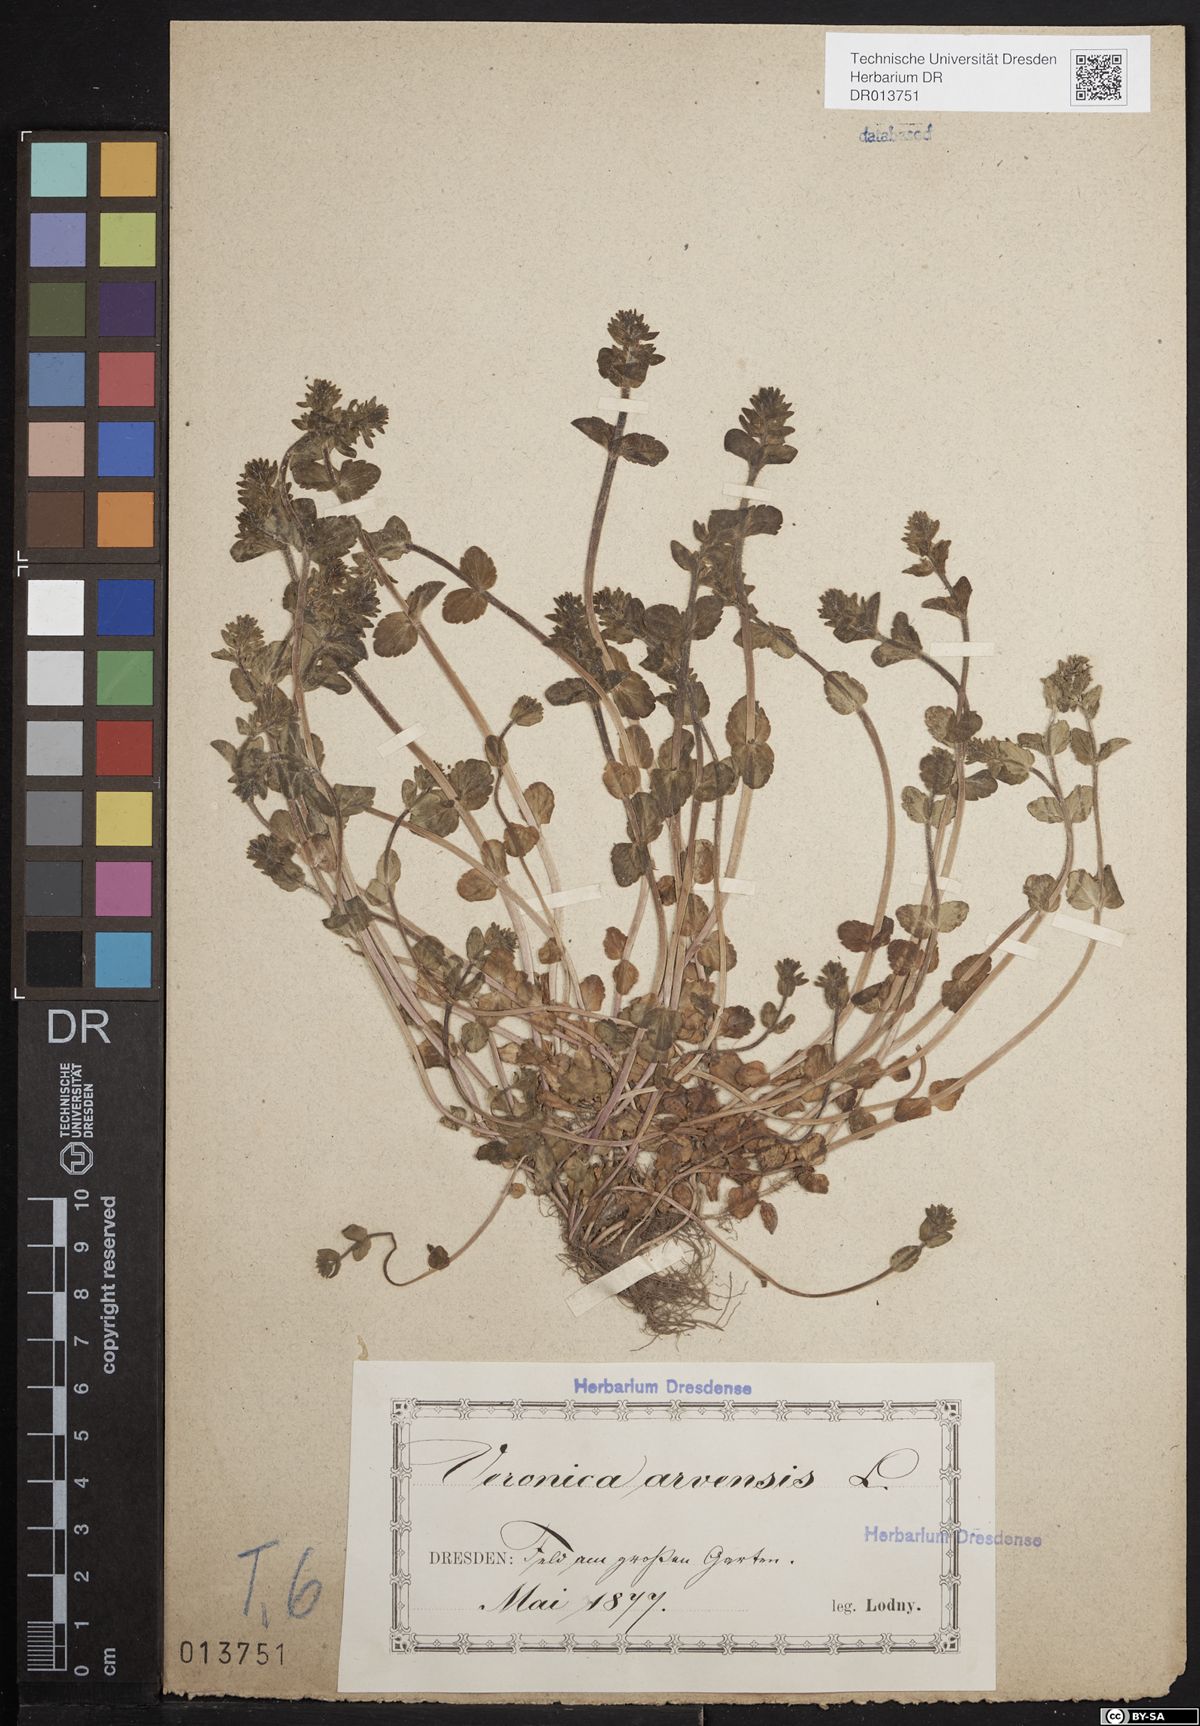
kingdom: Plantae
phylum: Tracheophyta
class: Magnoliopsida
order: Lamiales
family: Plantaginaceae
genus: Veronica
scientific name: Veronica arvensis
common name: Corn speedwell
